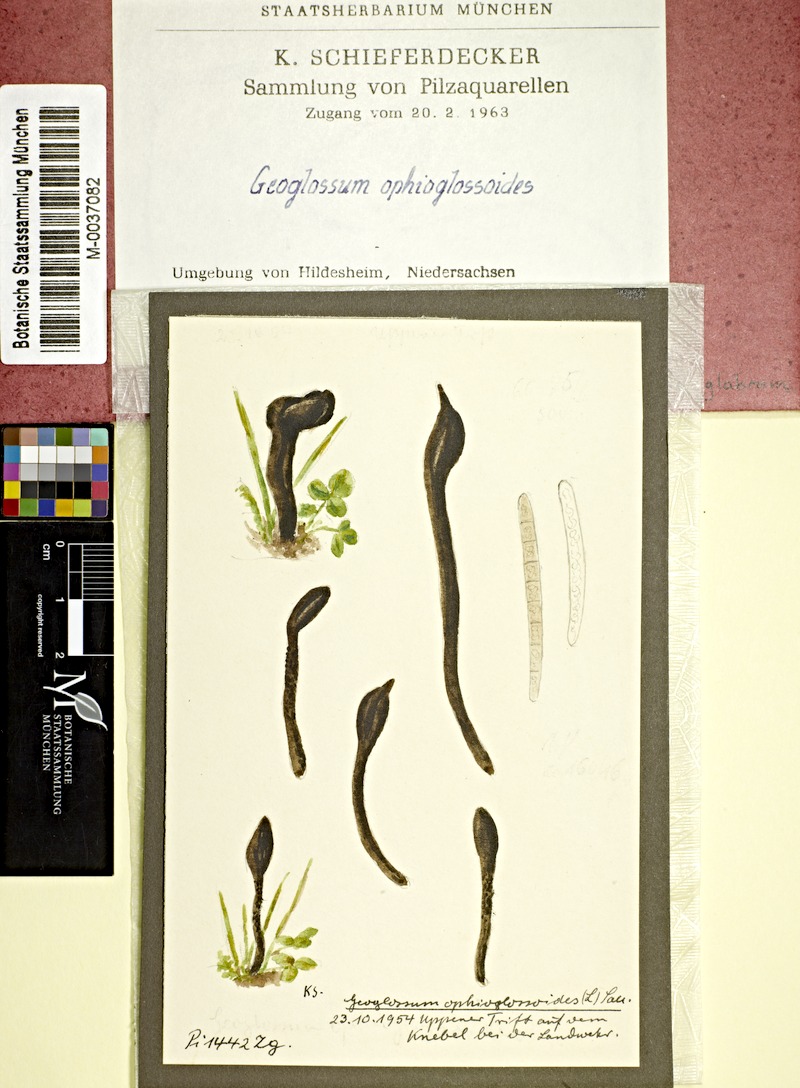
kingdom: Fungi
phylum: Ascomycota
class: Geoglossomycetes
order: Geoglossales
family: Geoglossaceae
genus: Geoglossum
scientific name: Geoglossum cookeianum
